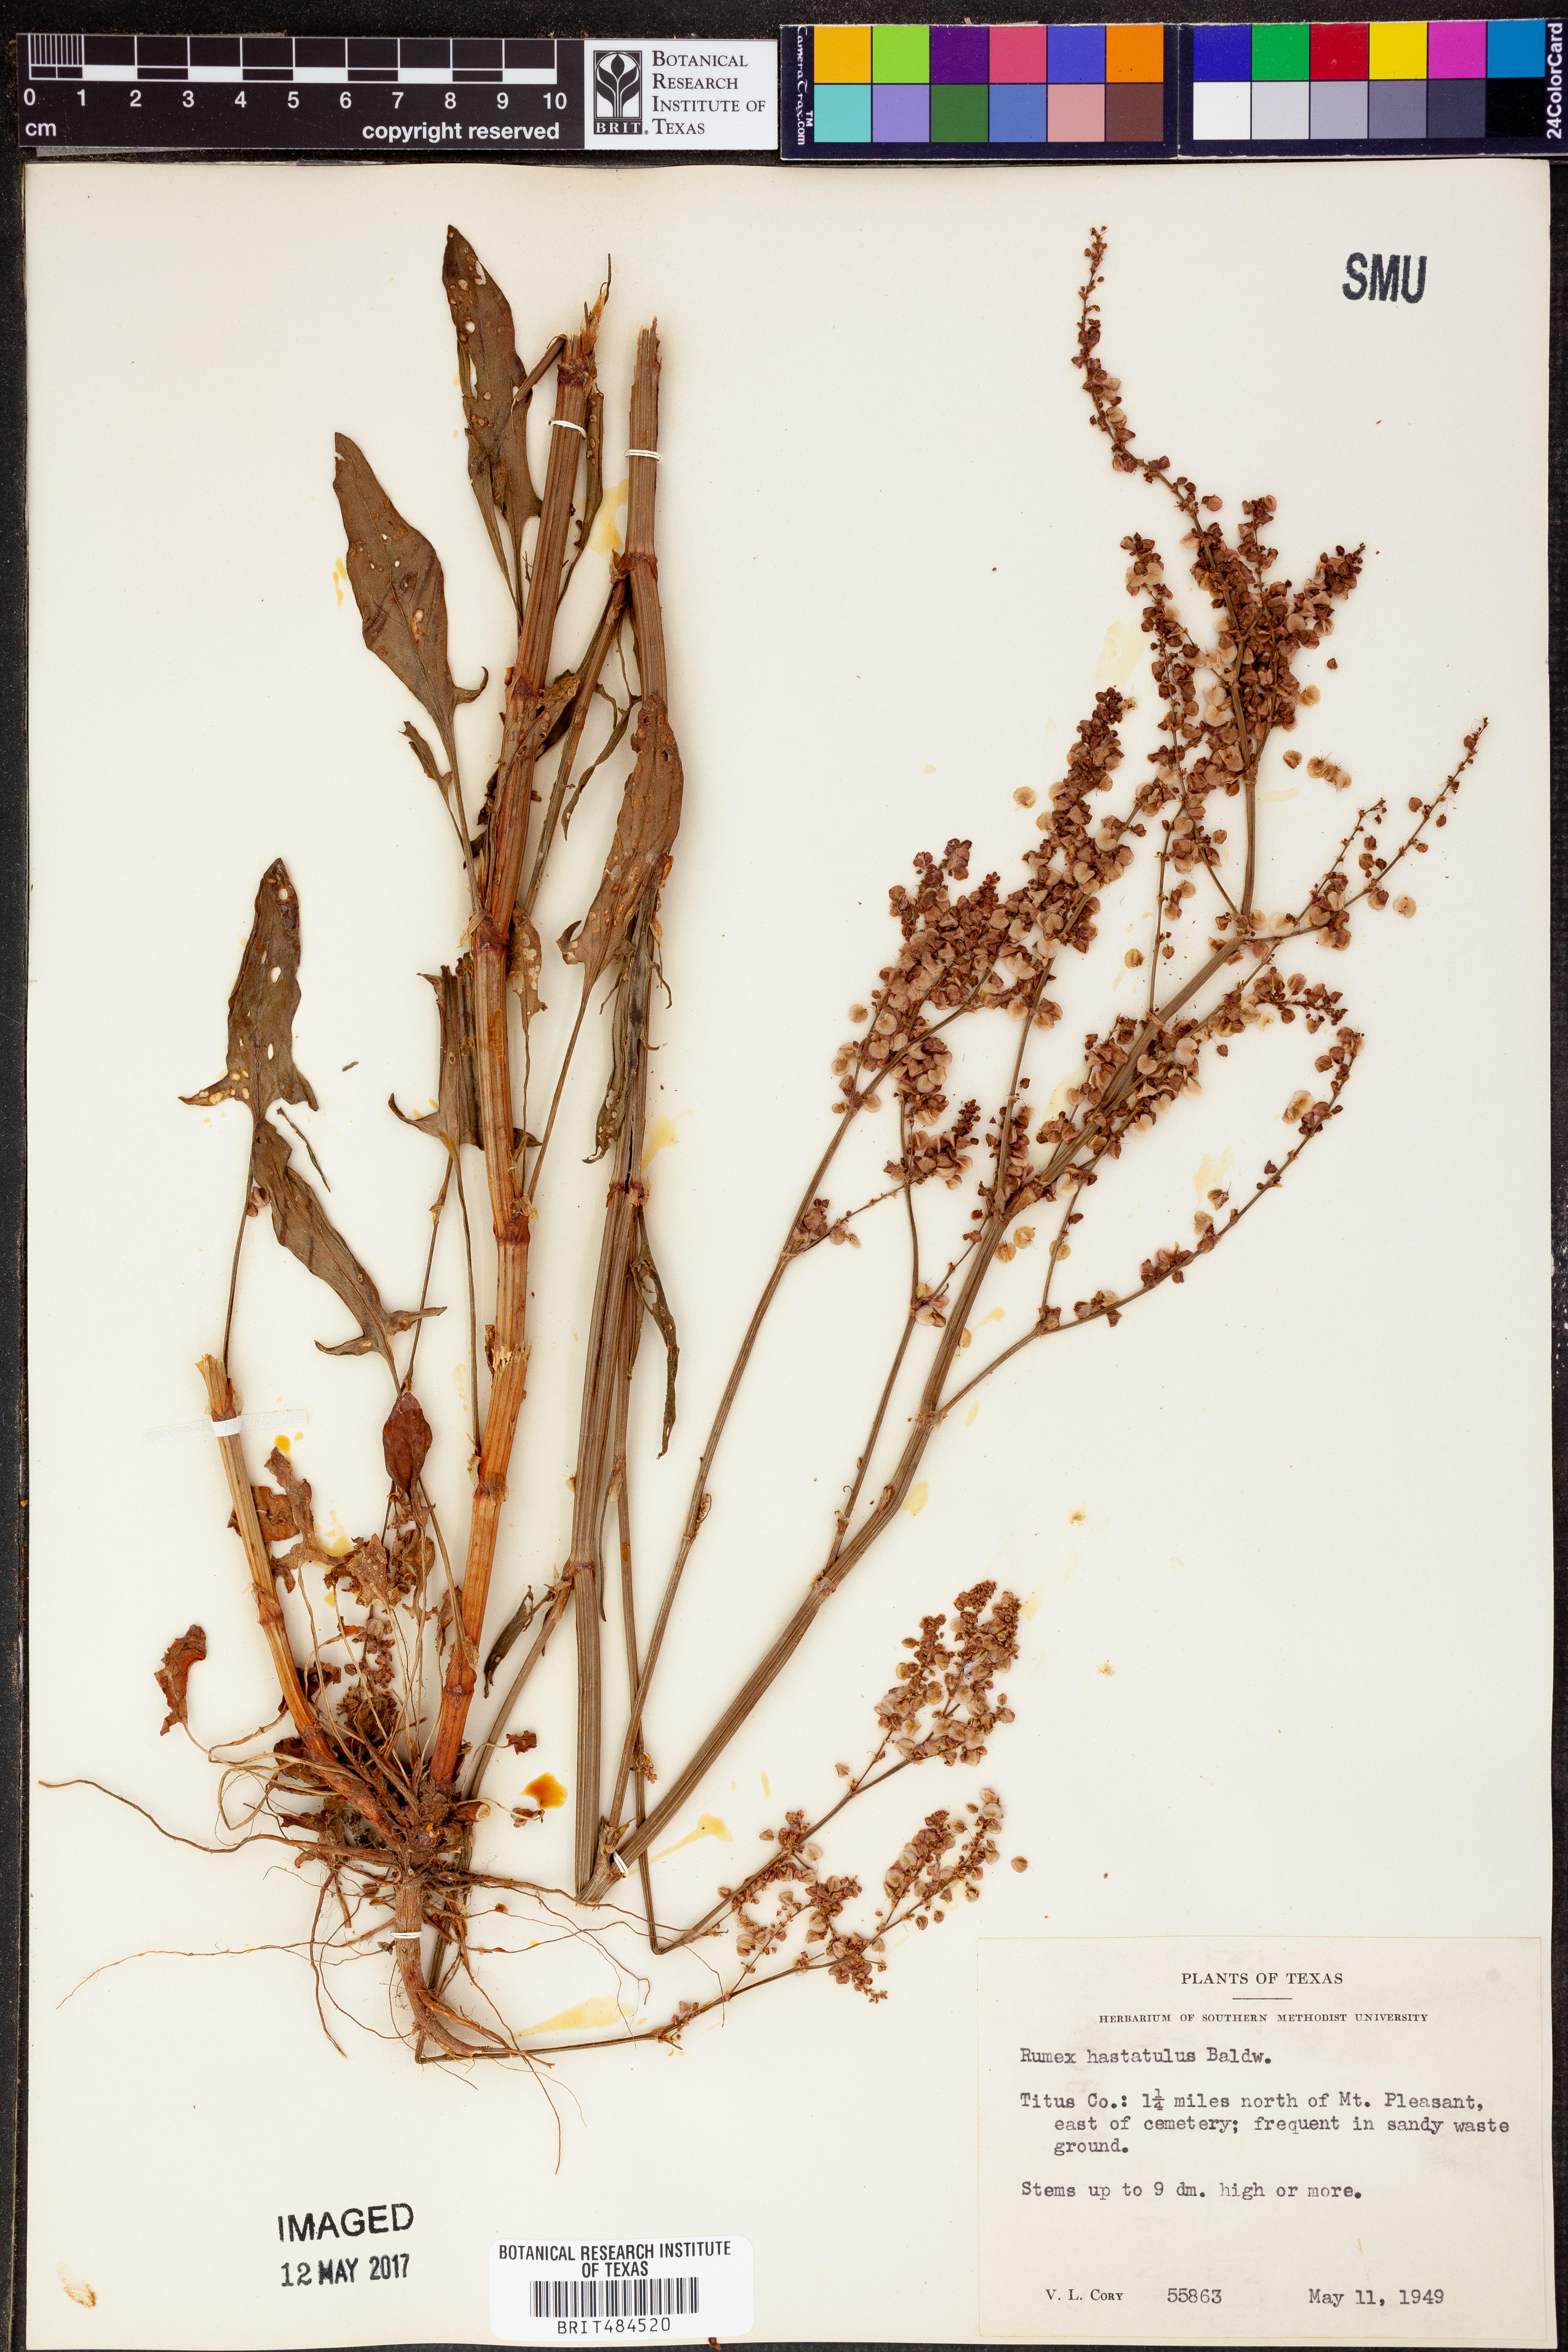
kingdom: Plantae
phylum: Tracheophyta
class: Magnoliopsida
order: Caryophyllales
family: Polygonaceae
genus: Rumex
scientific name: Rumex hastatulus
